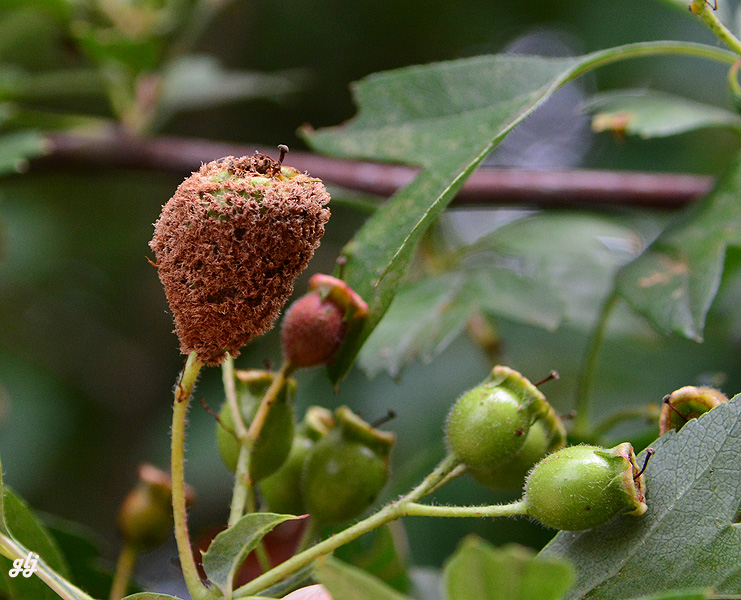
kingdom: Fungi
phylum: Basidiomycota
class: Pucciniomycetes
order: Pucciniales
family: Gymnosporangiaceae
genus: Gymnosporangium
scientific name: Gymnosporangium
